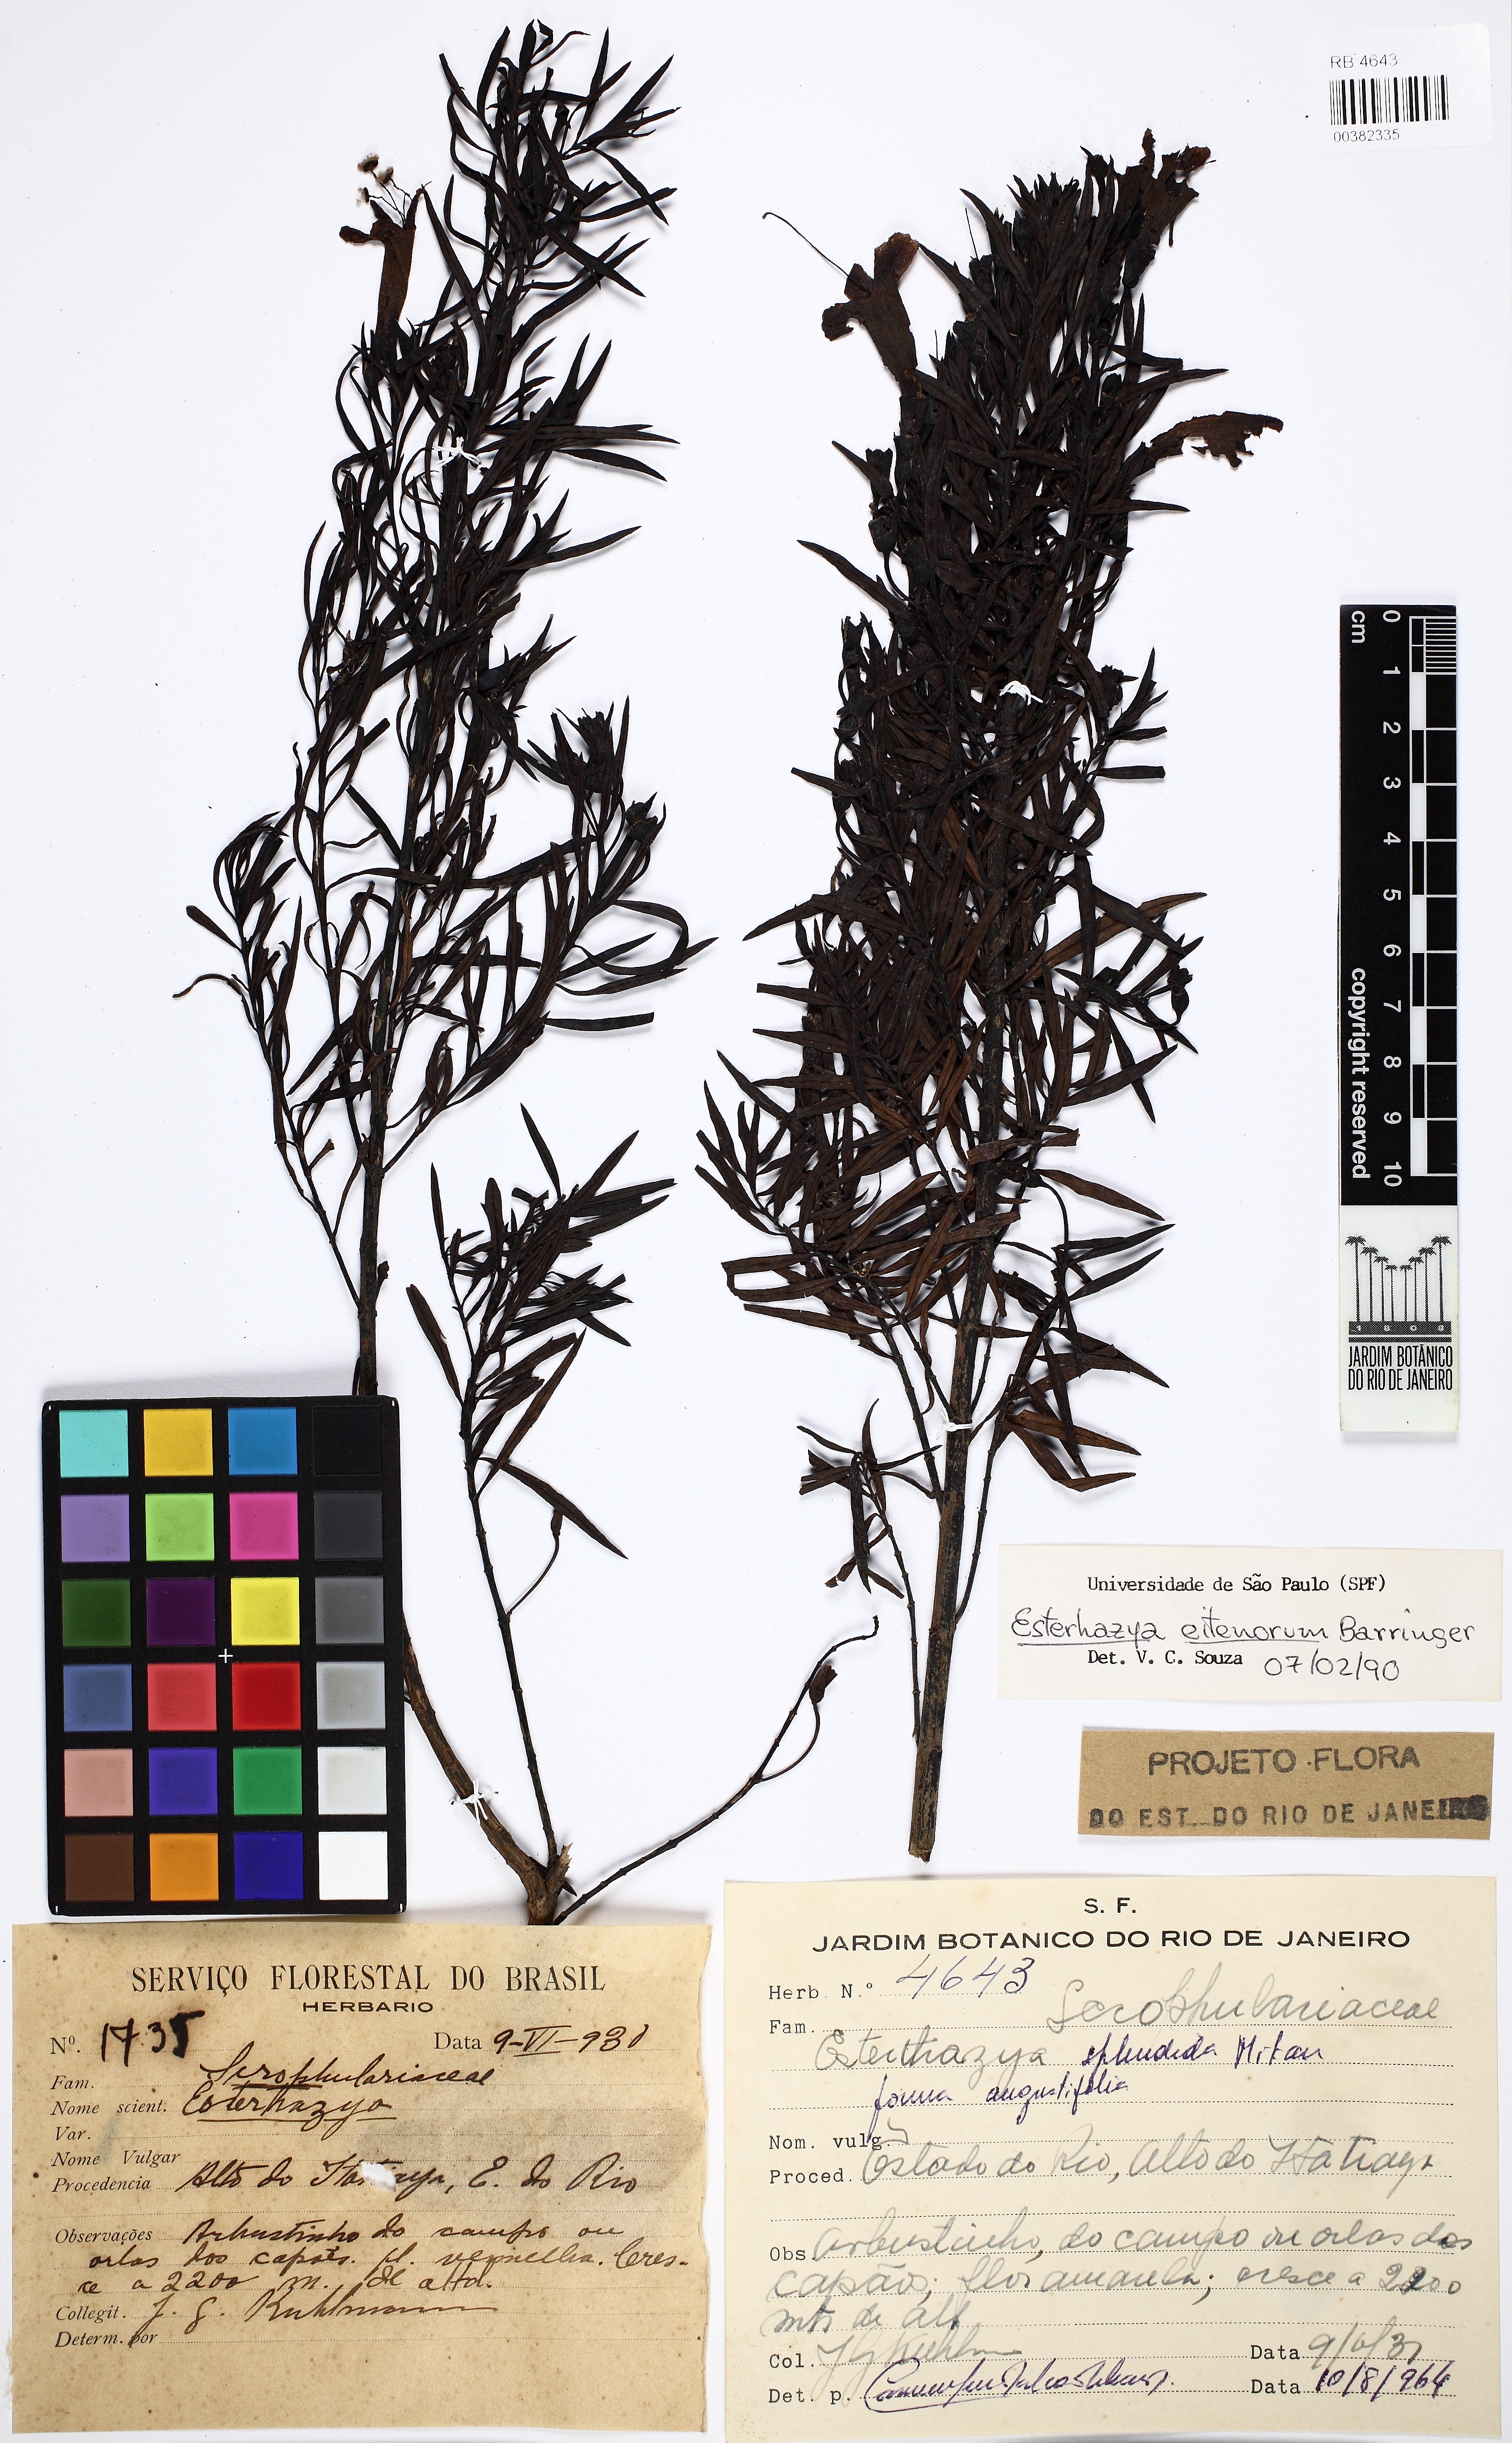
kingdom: Plantae
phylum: Tracheophyta
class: Magnoliopsida
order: Lamiales
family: Scrophulariaceae
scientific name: Scrophulariaceae
